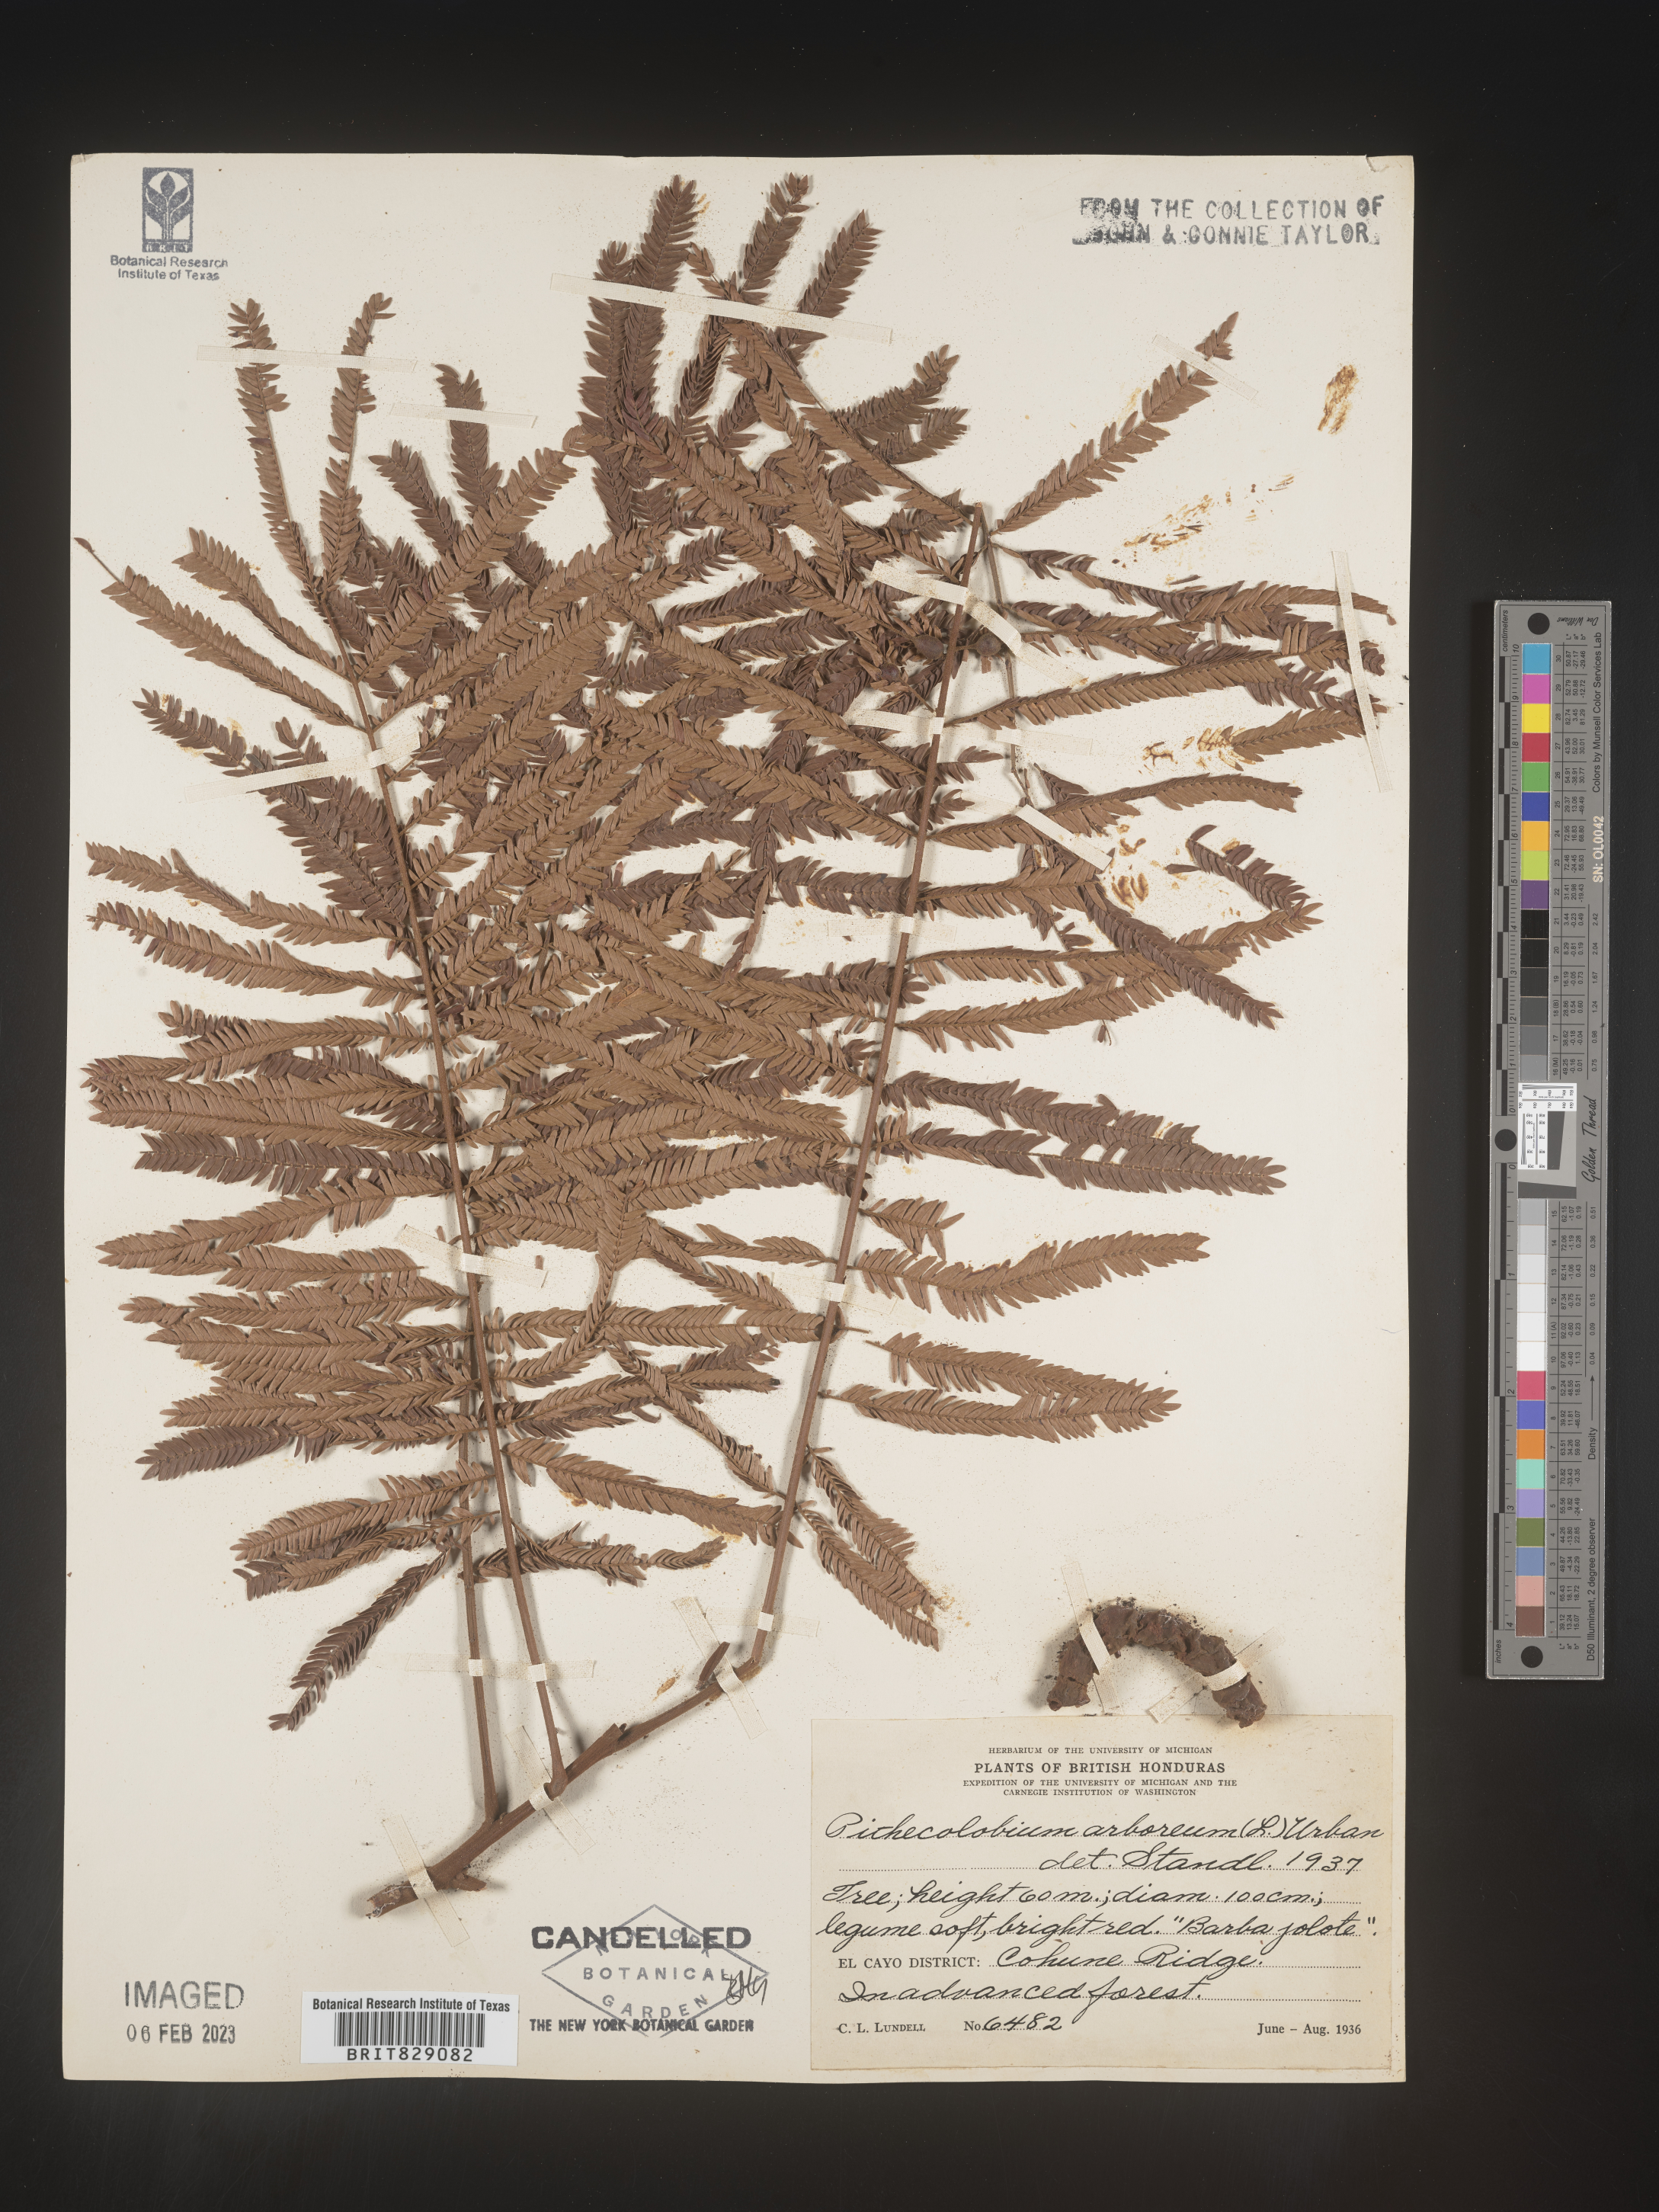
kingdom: Plantae
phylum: Tracheophyta
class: Magnoliopsida
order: Fabales
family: Fabaceae
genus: Pithecellobium
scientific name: Pithecellobium
